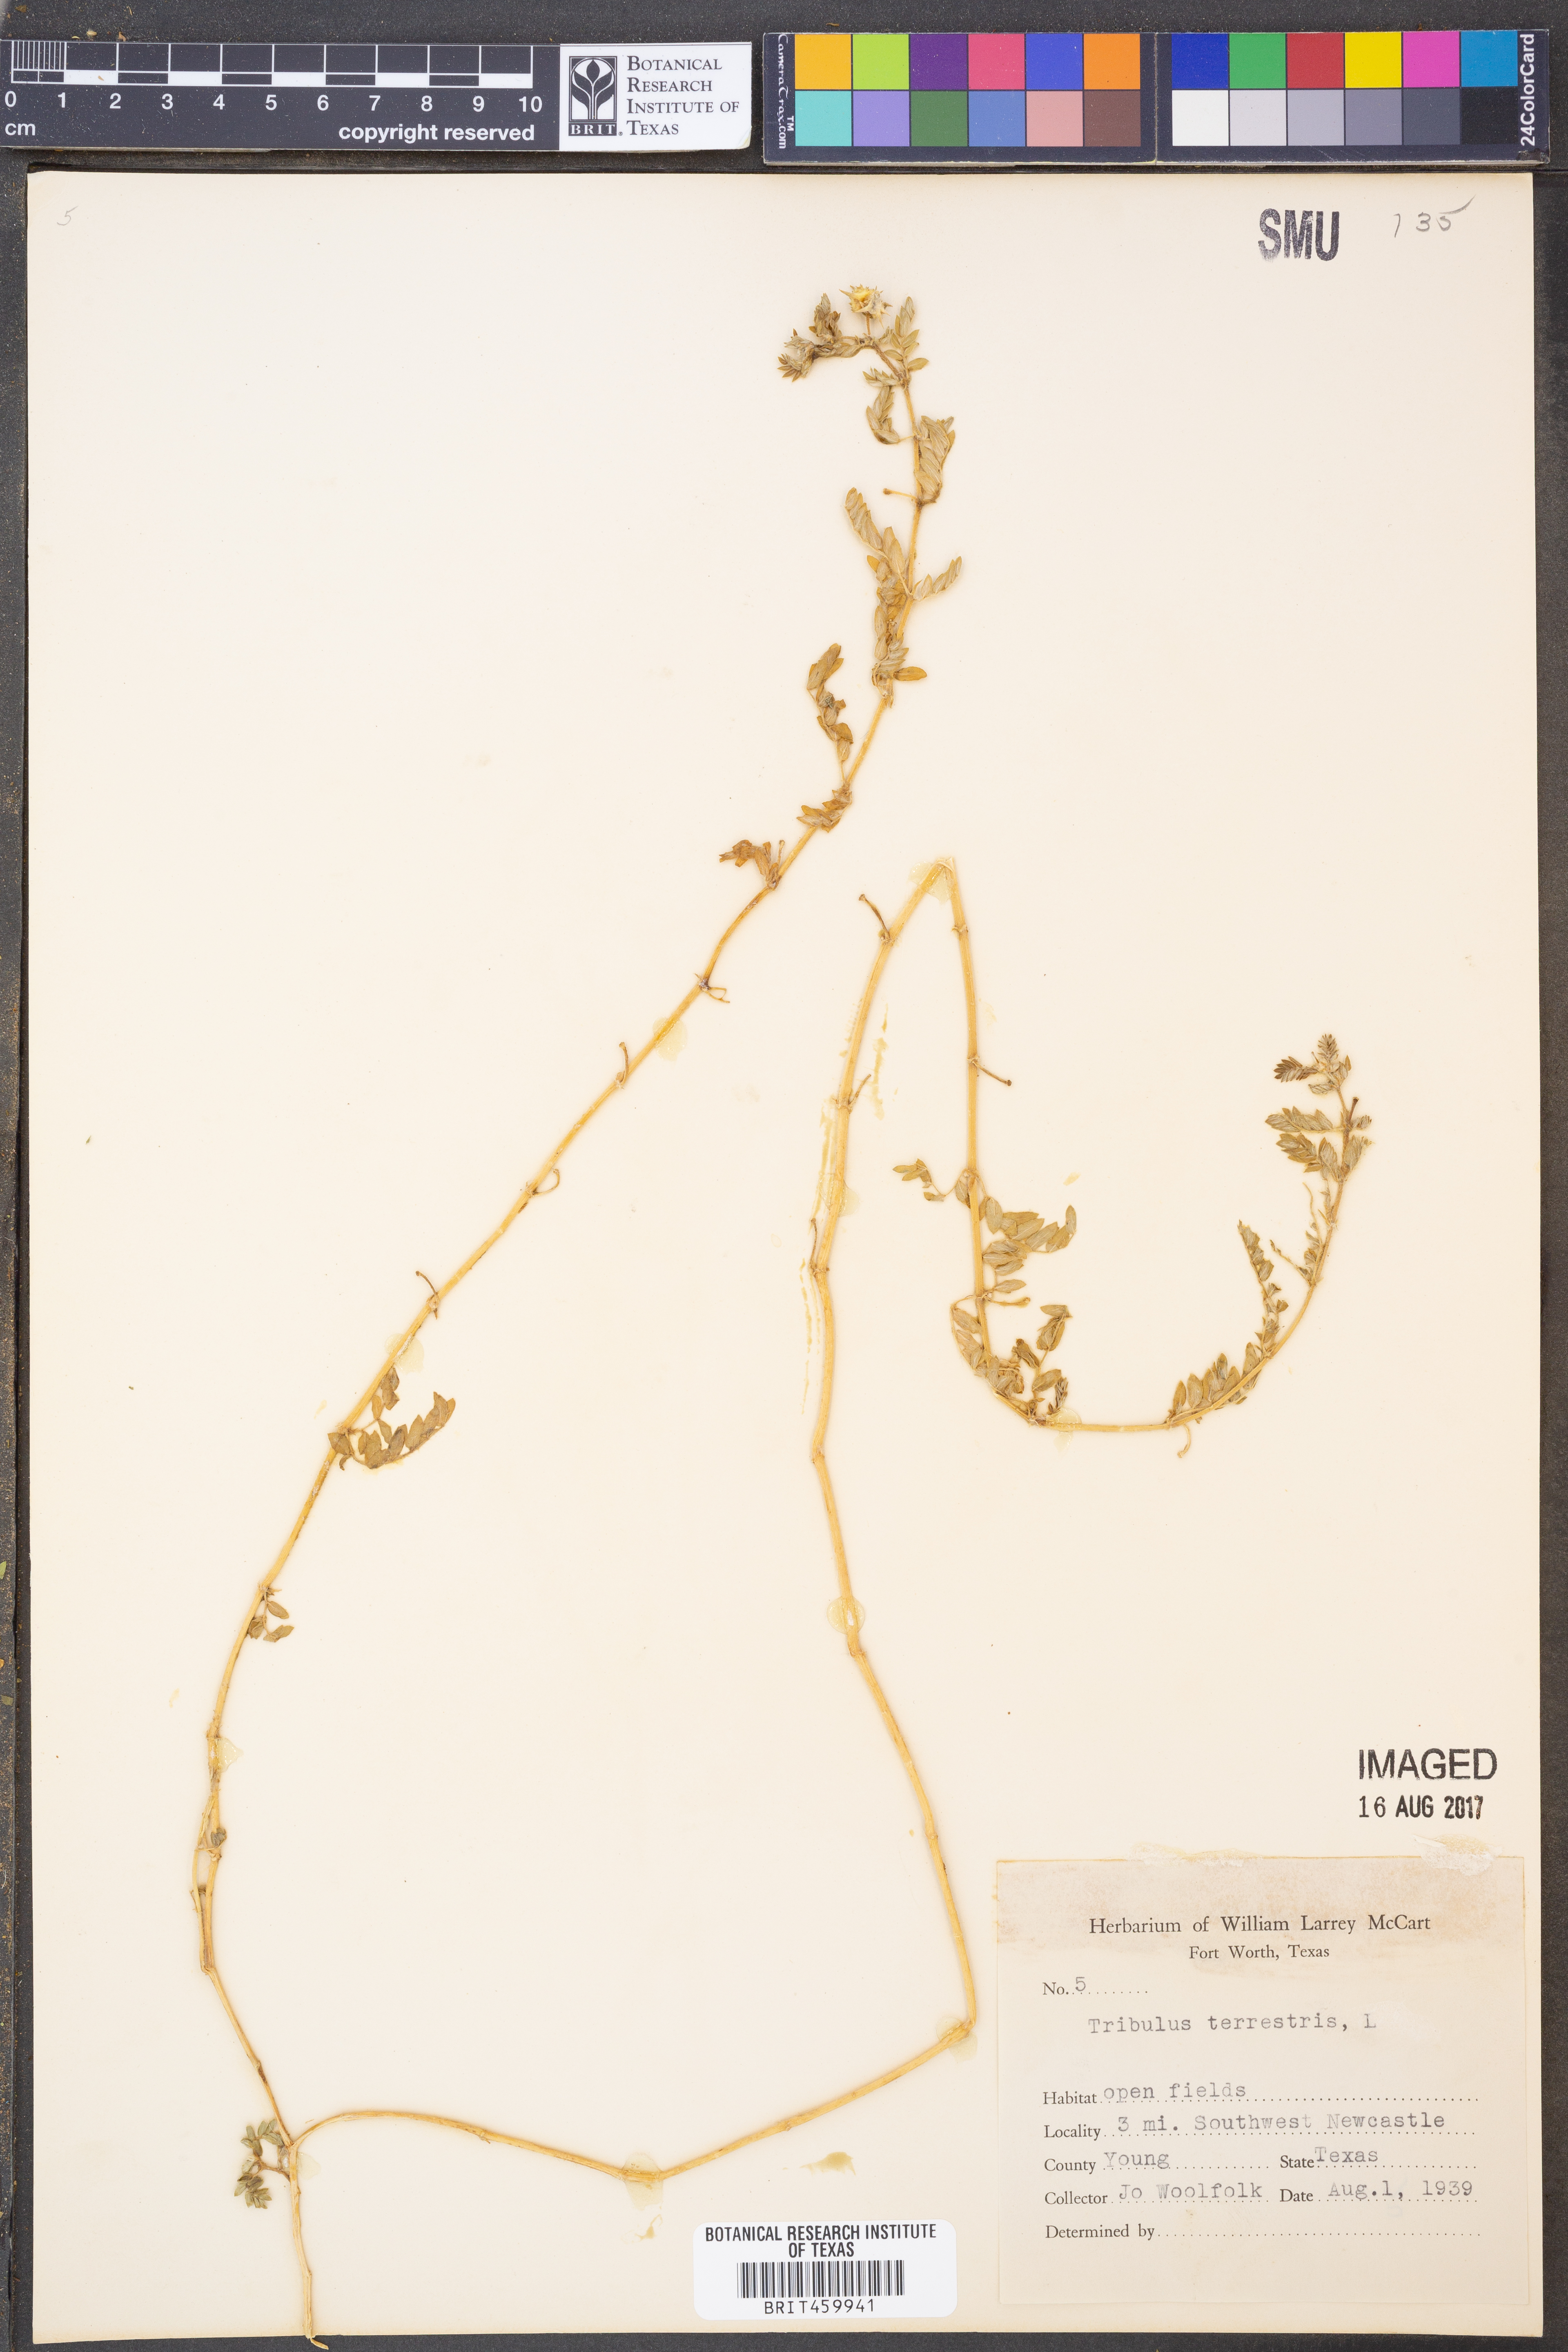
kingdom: Plantae
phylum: Tracheophyta
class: Magnoliopsida
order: Zygophyllales
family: Zygophyllaceae
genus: Tribulus
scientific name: Tribulus terrestris
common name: Puncturevine
